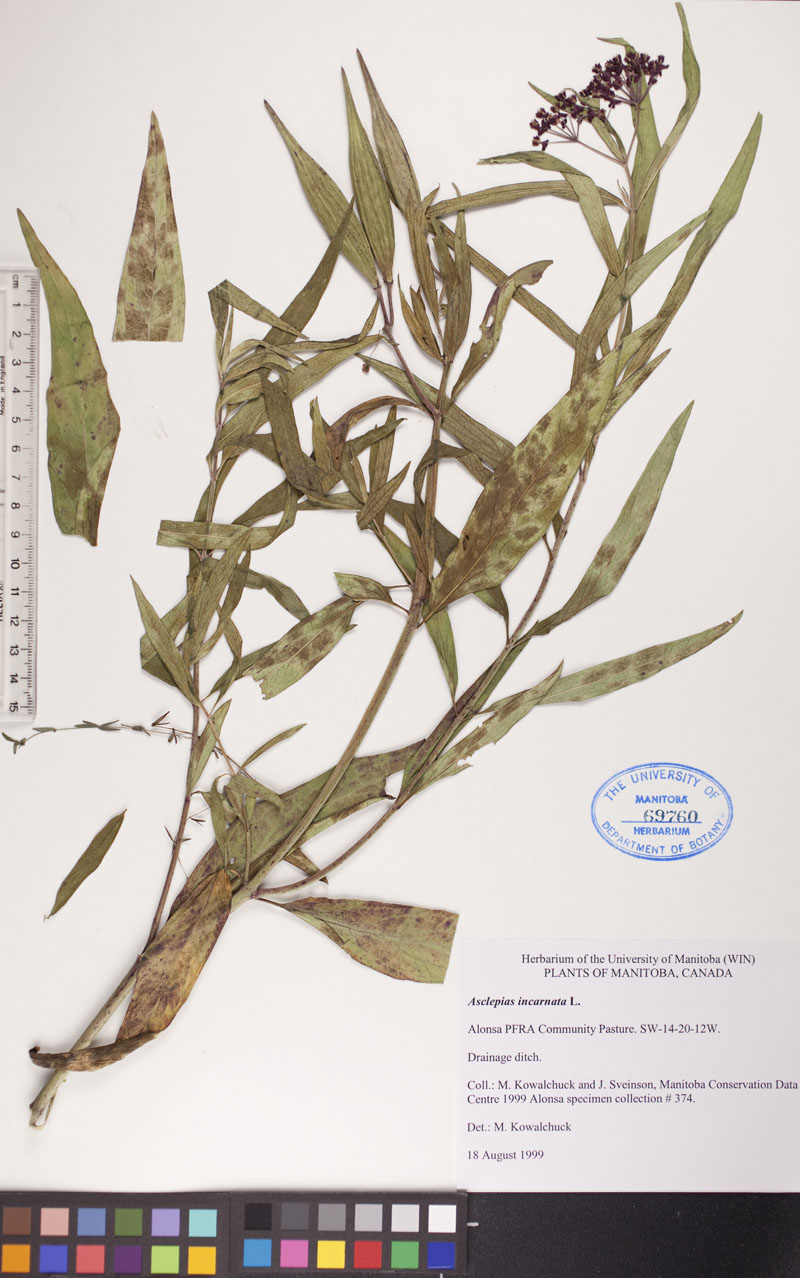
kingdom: Plantae
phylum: Tracheophyta
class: Magnoliopsida
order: Gentianales
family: Apocynaceae
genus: Asclepias
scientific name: Asclepias incarnata
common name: Swamp milkweed
